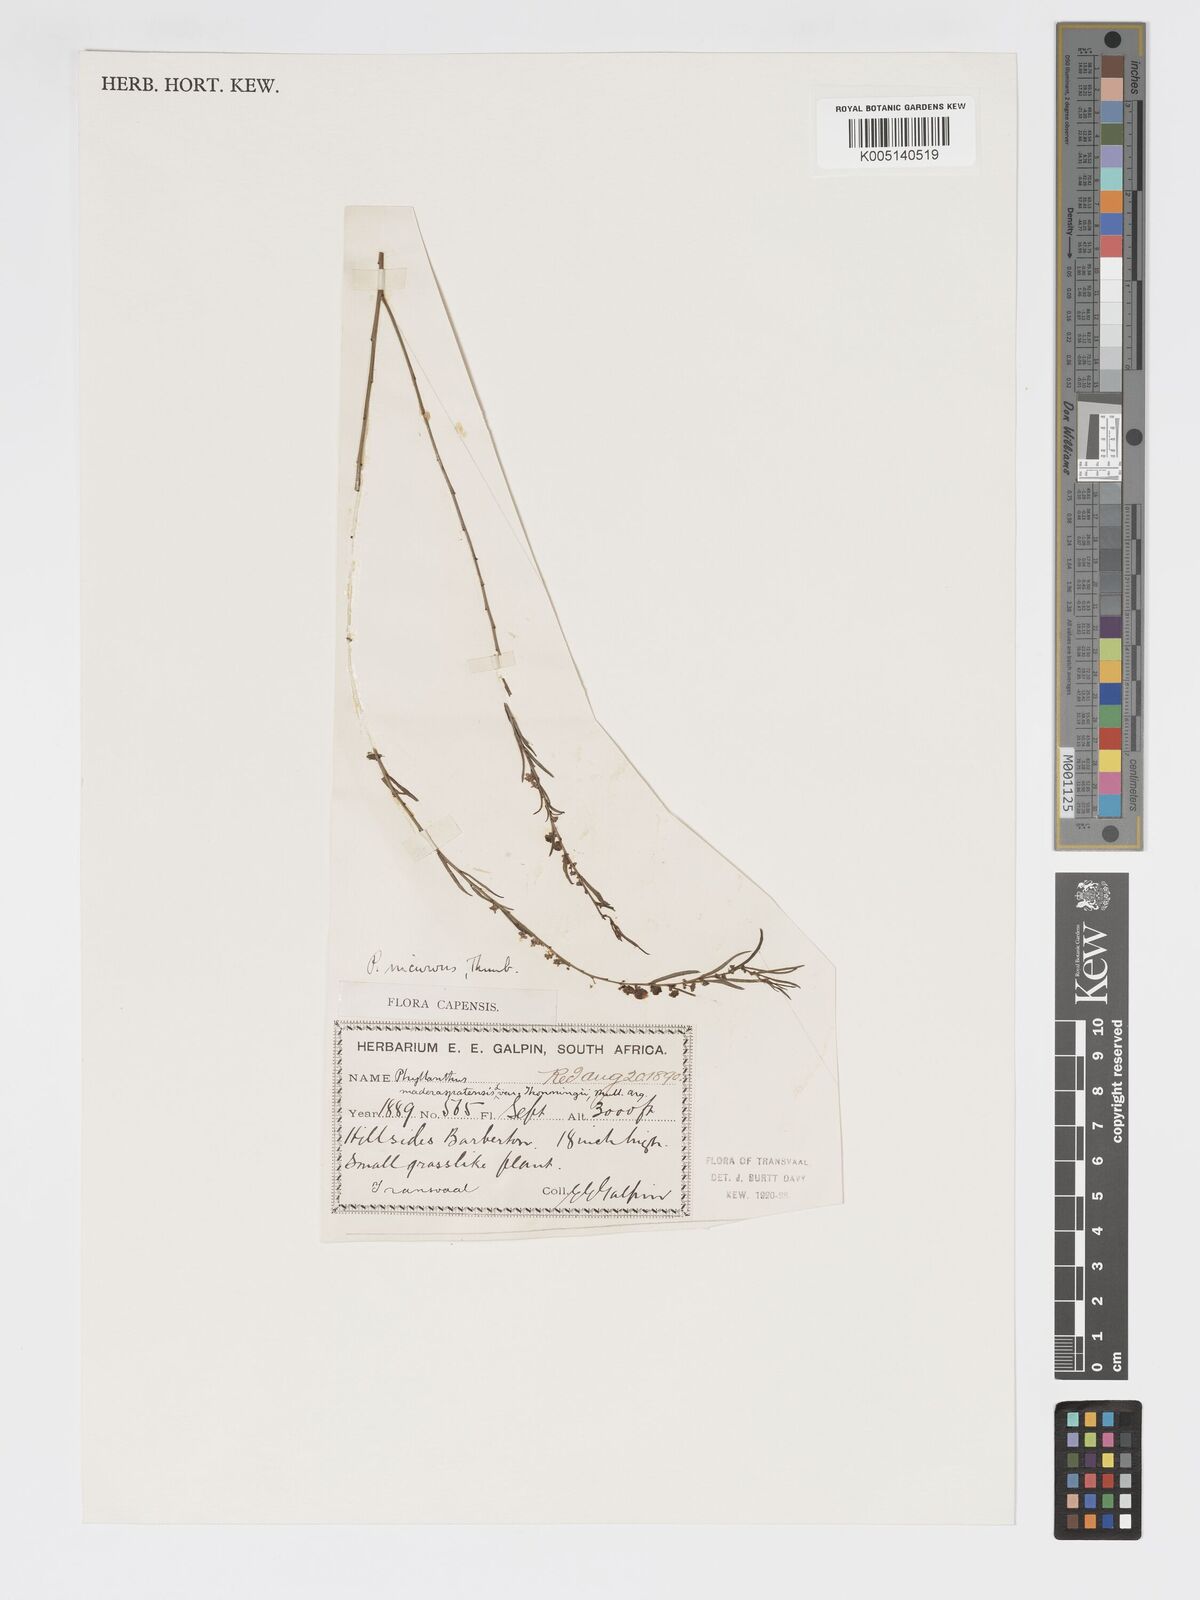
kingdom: Plantae
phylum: Tracheophyta
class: Magnoliopsida
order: Malpighiales
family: Phyllanthaceae
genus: Phyllanthus
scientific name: Phyllanthus incurvus
